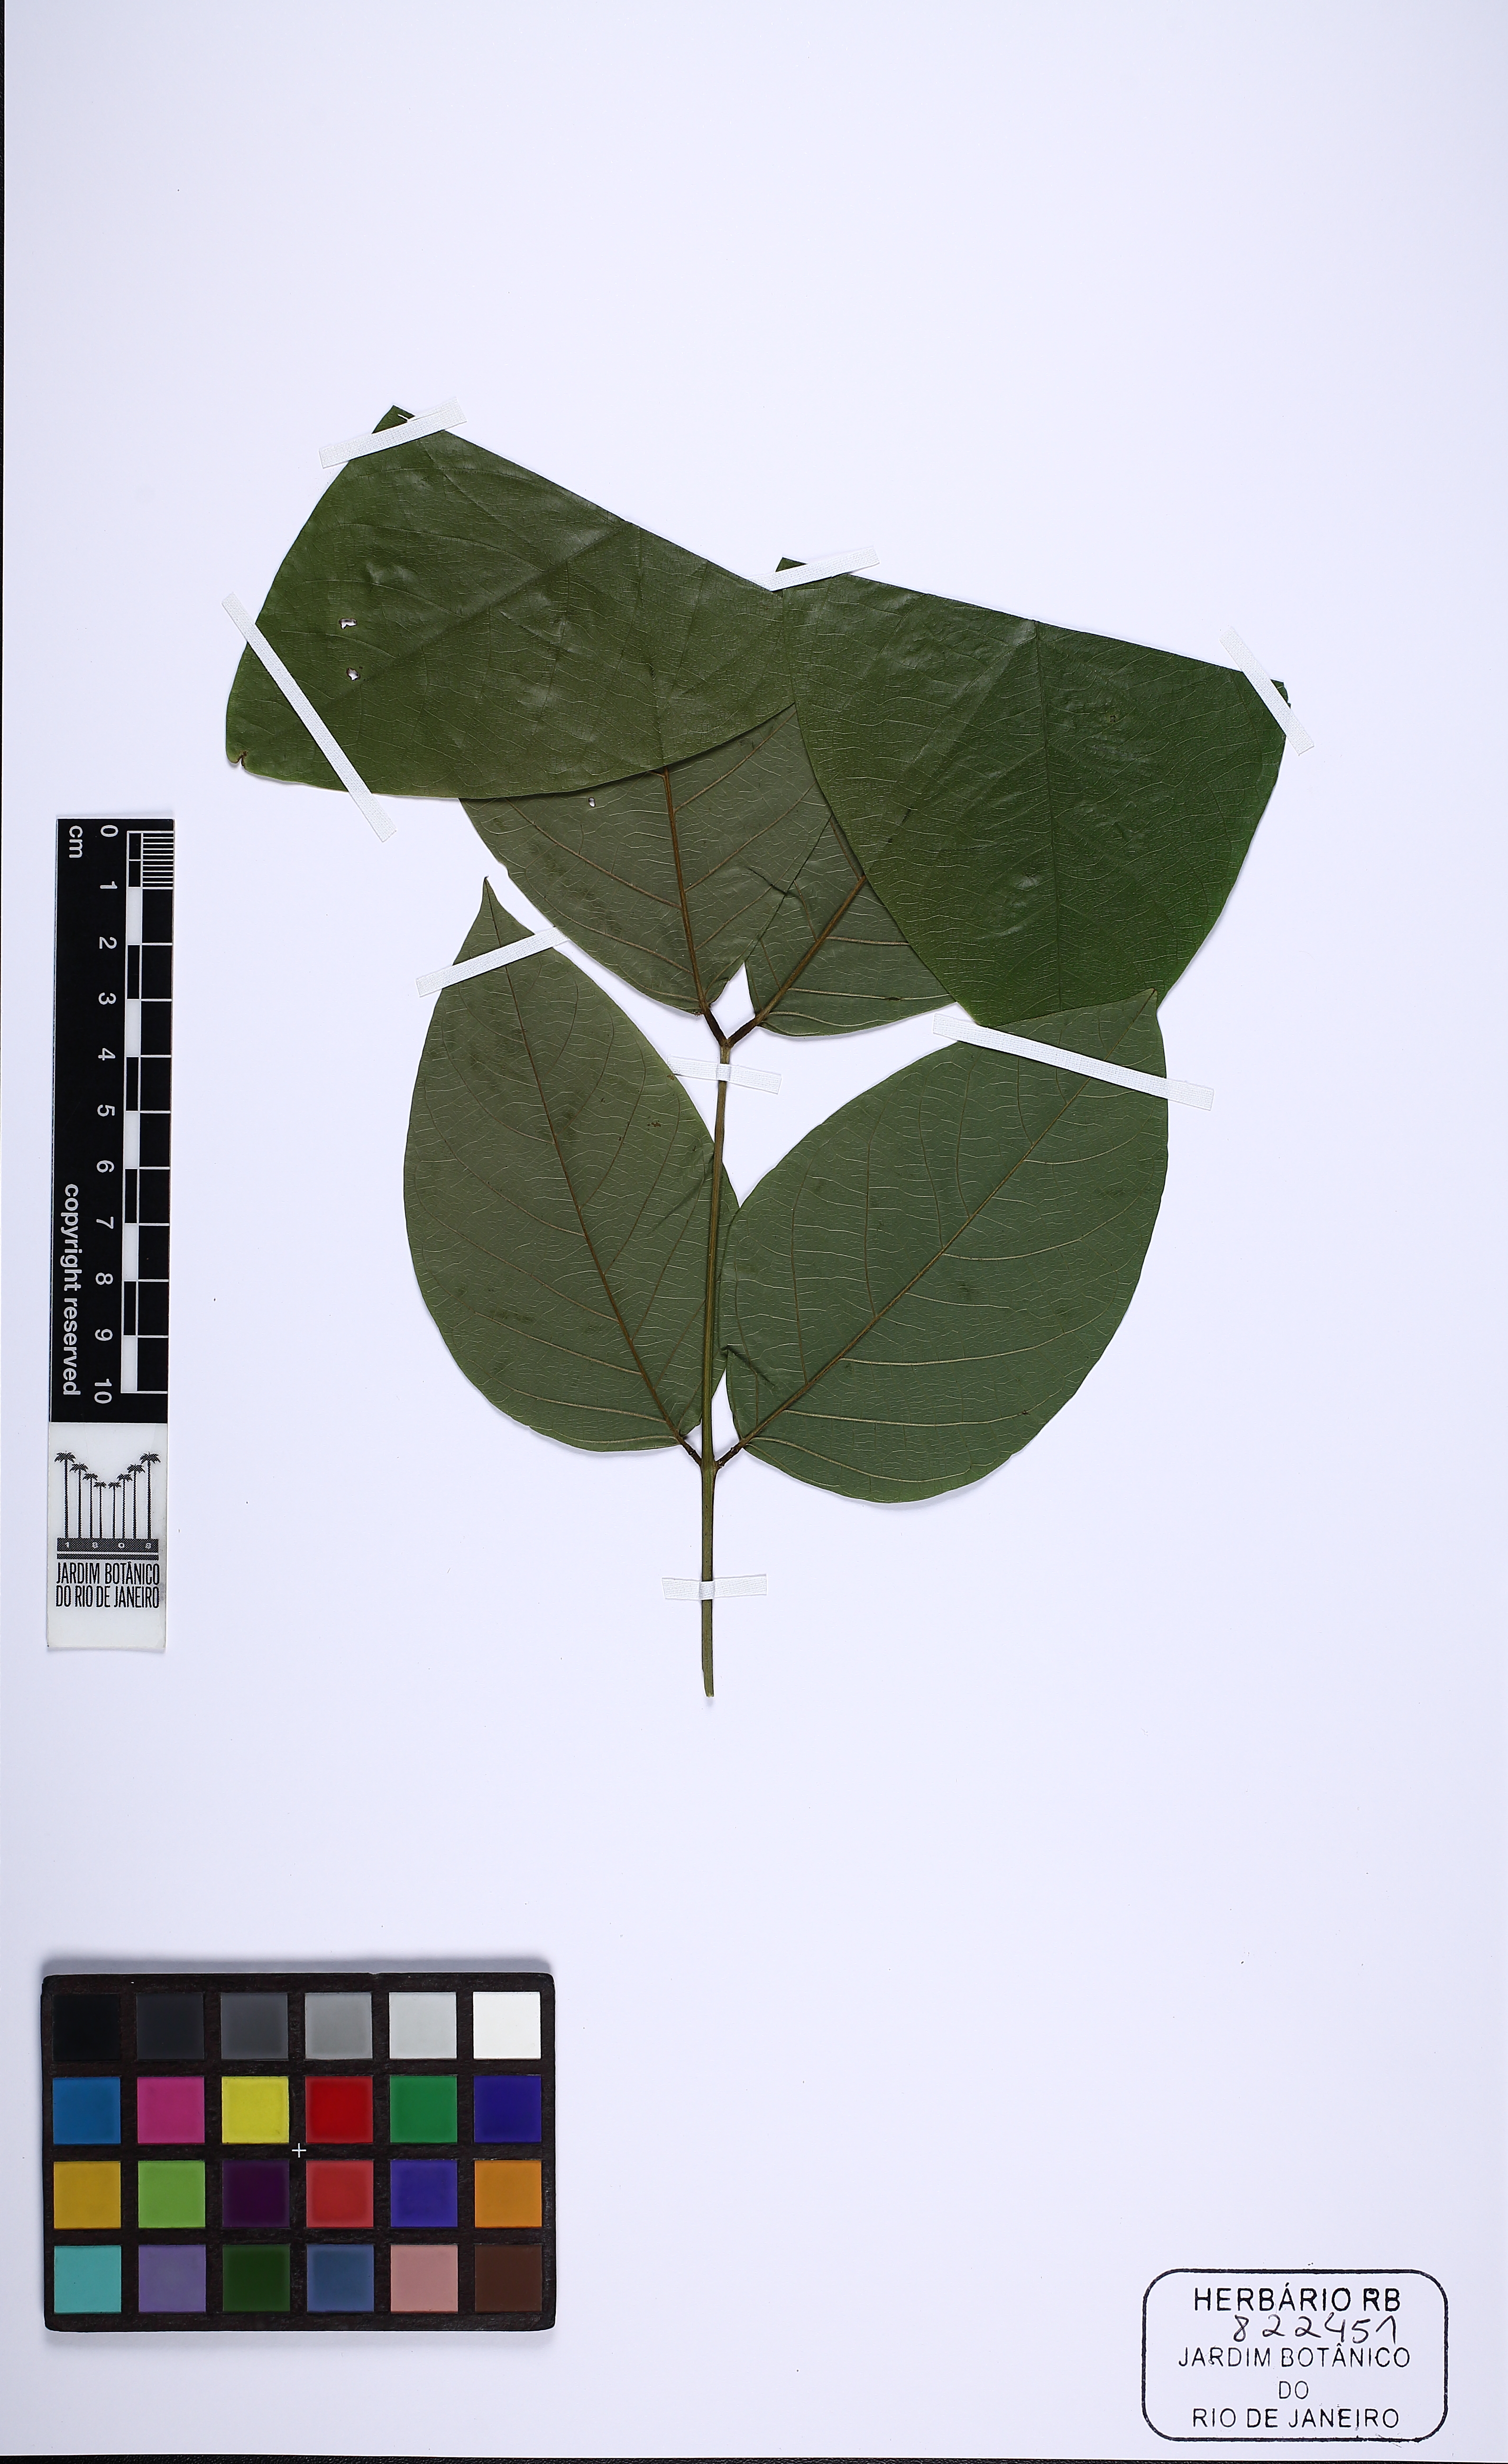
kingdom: Plantae
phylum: Tracheophyta
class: Magnoliopsida
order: Fabales
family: Fabaceae
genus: Senna
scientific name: Senna macrophylla
